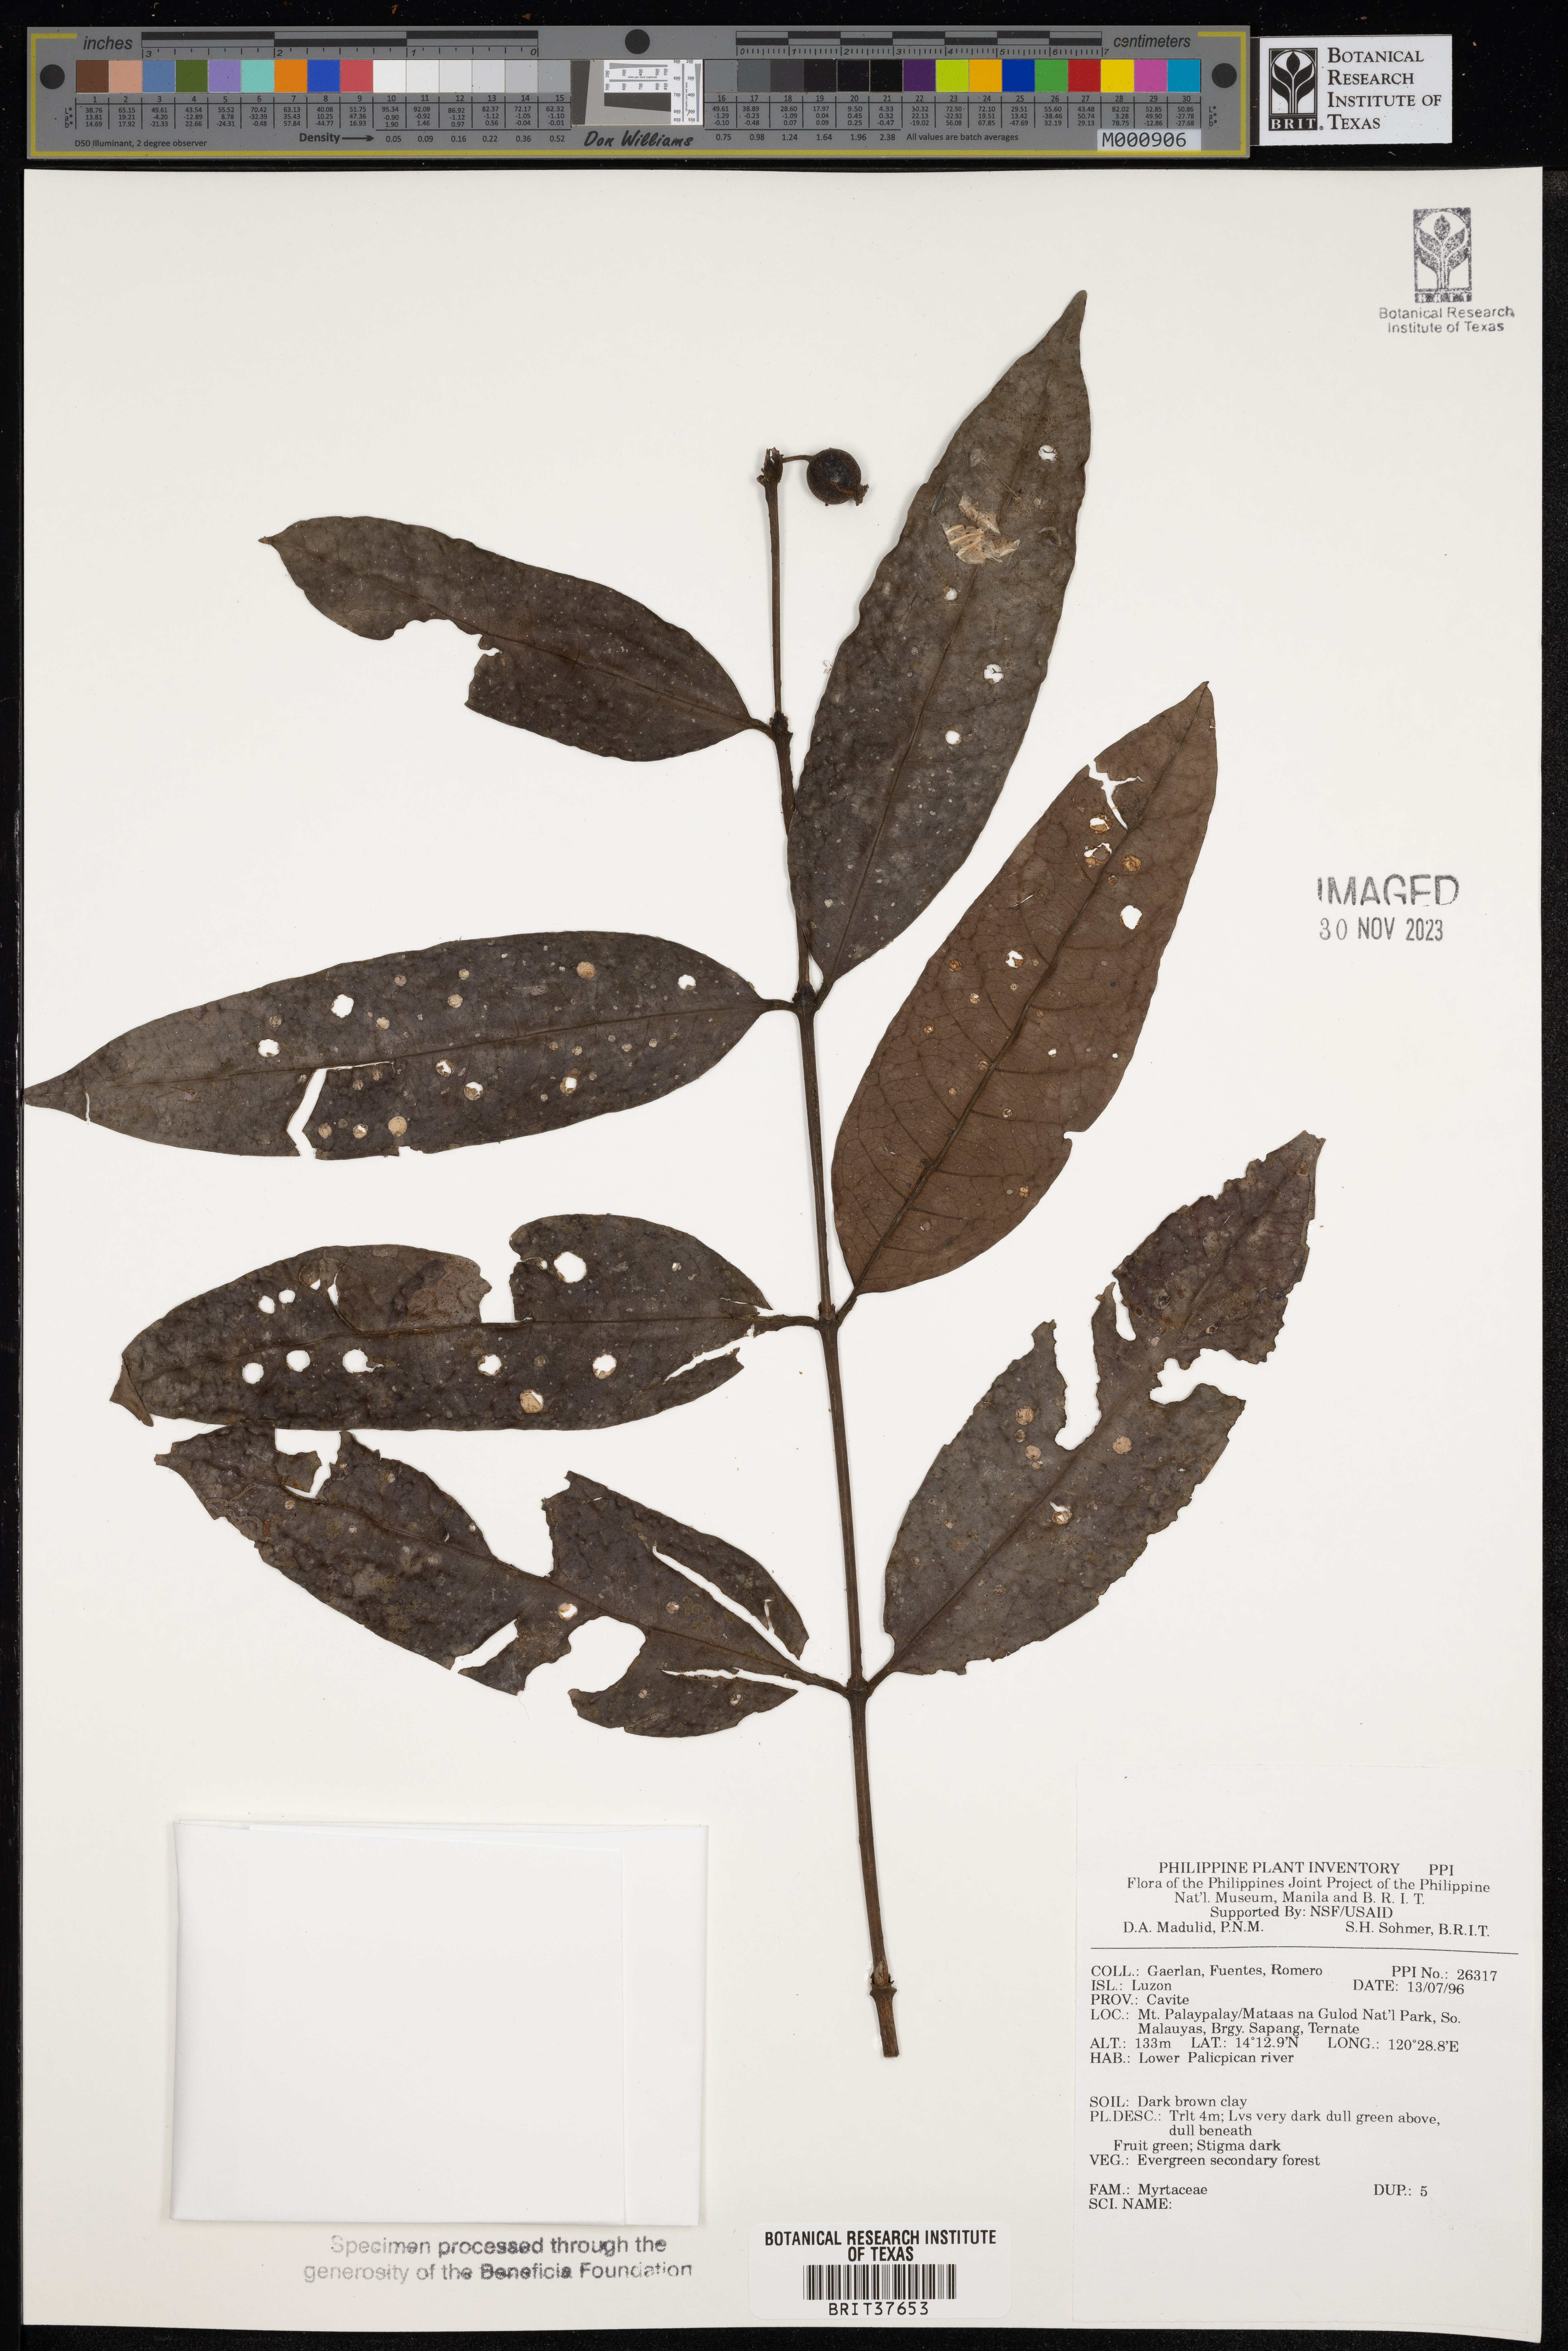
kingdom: Plantae
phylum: Tracheophyta
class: Magnoliopsida
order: Myrtales
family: Myrtaceae
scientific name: Myrtaceae
